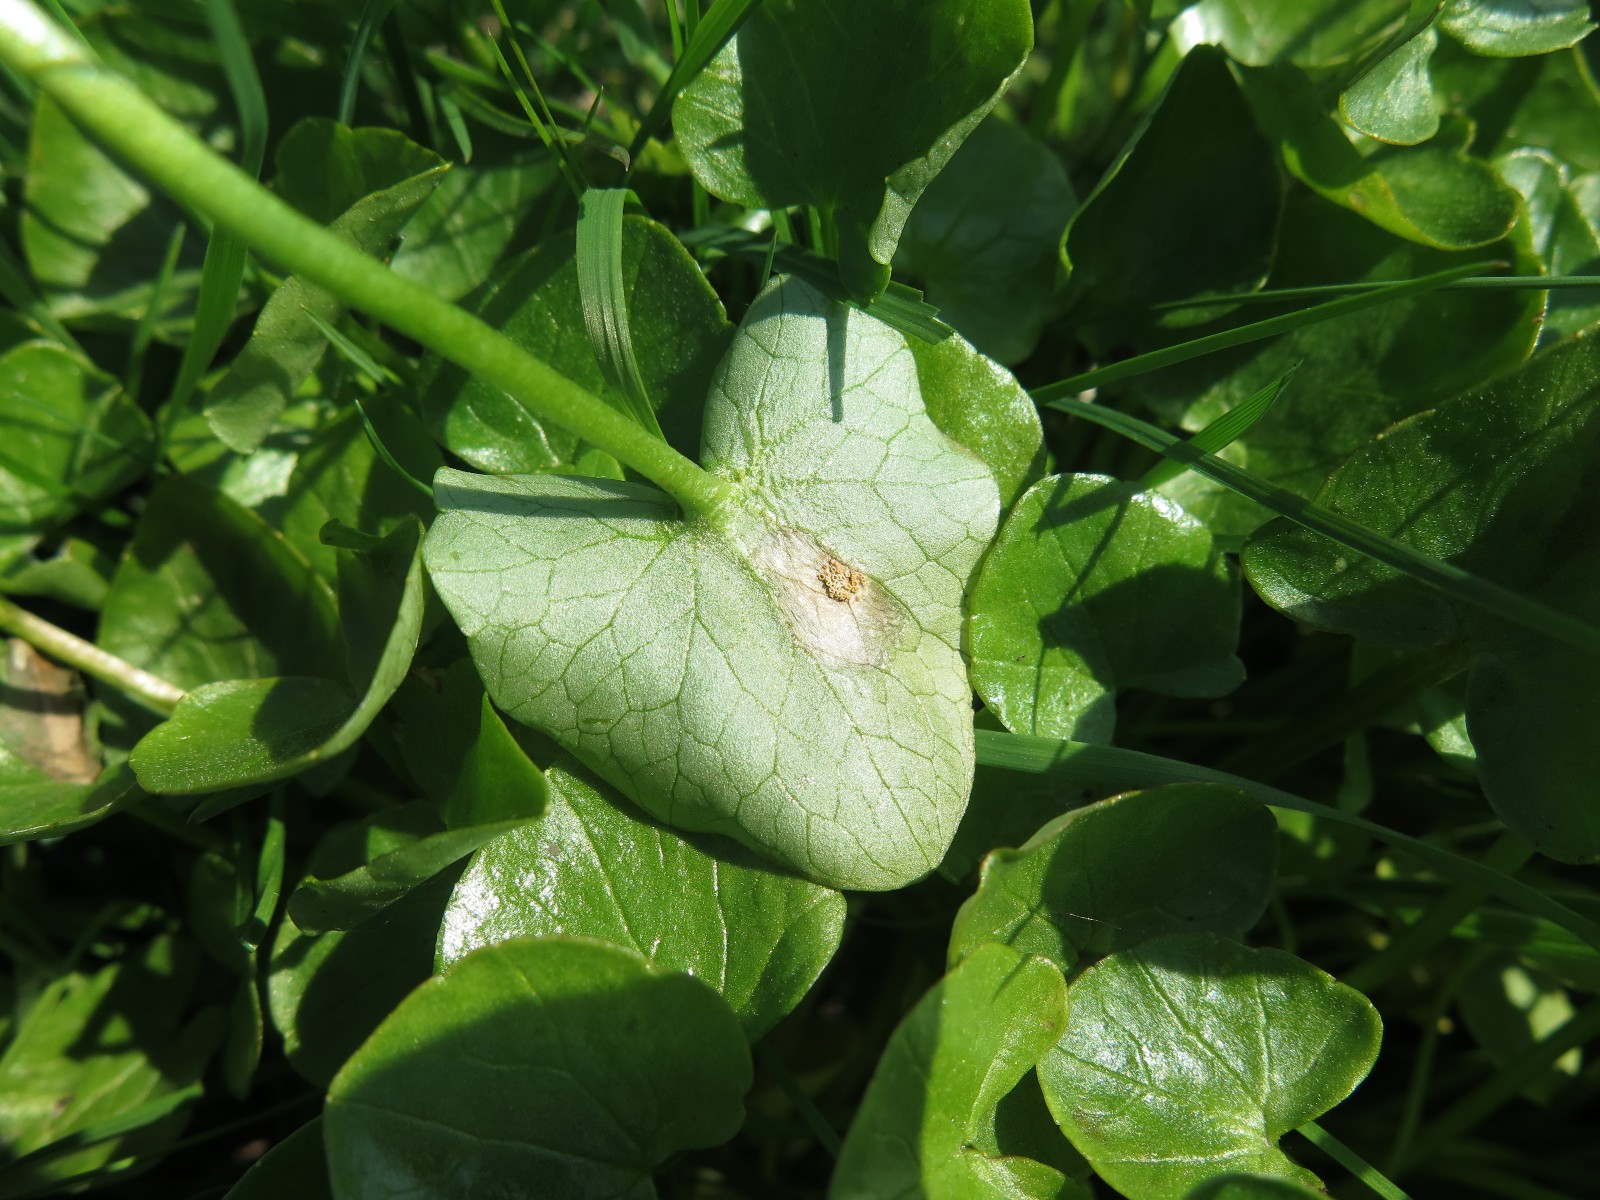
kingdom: Fungi
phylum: Basidiomycota
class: Pucciniomycetes
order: Pucciniales
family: Pucciniaceae
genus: Uromyces
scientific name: Uromyces dactylidis
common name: ranunkel-encellerust
